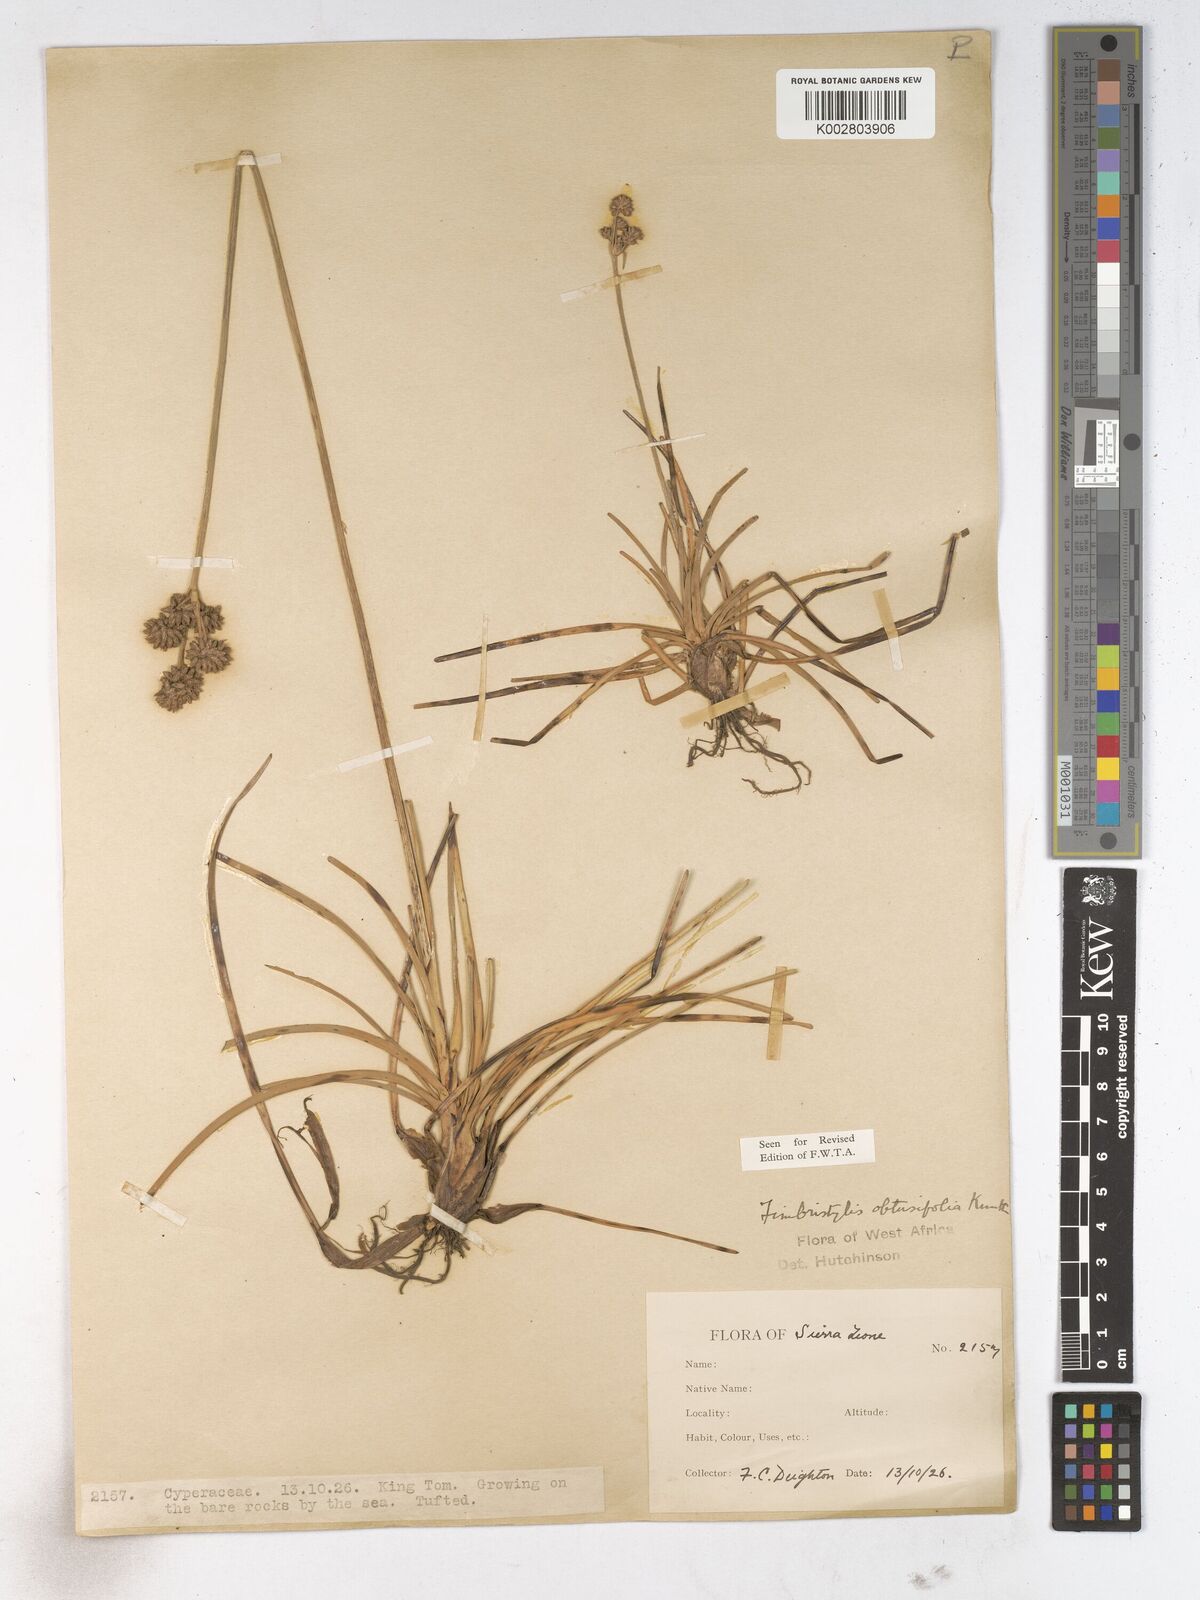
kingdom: Plantae
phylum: Tracheophyta
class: Liliopsida
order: Poales
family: Cyperaceae
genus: Fimbristylis
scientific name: Fimbristylis cymosa
